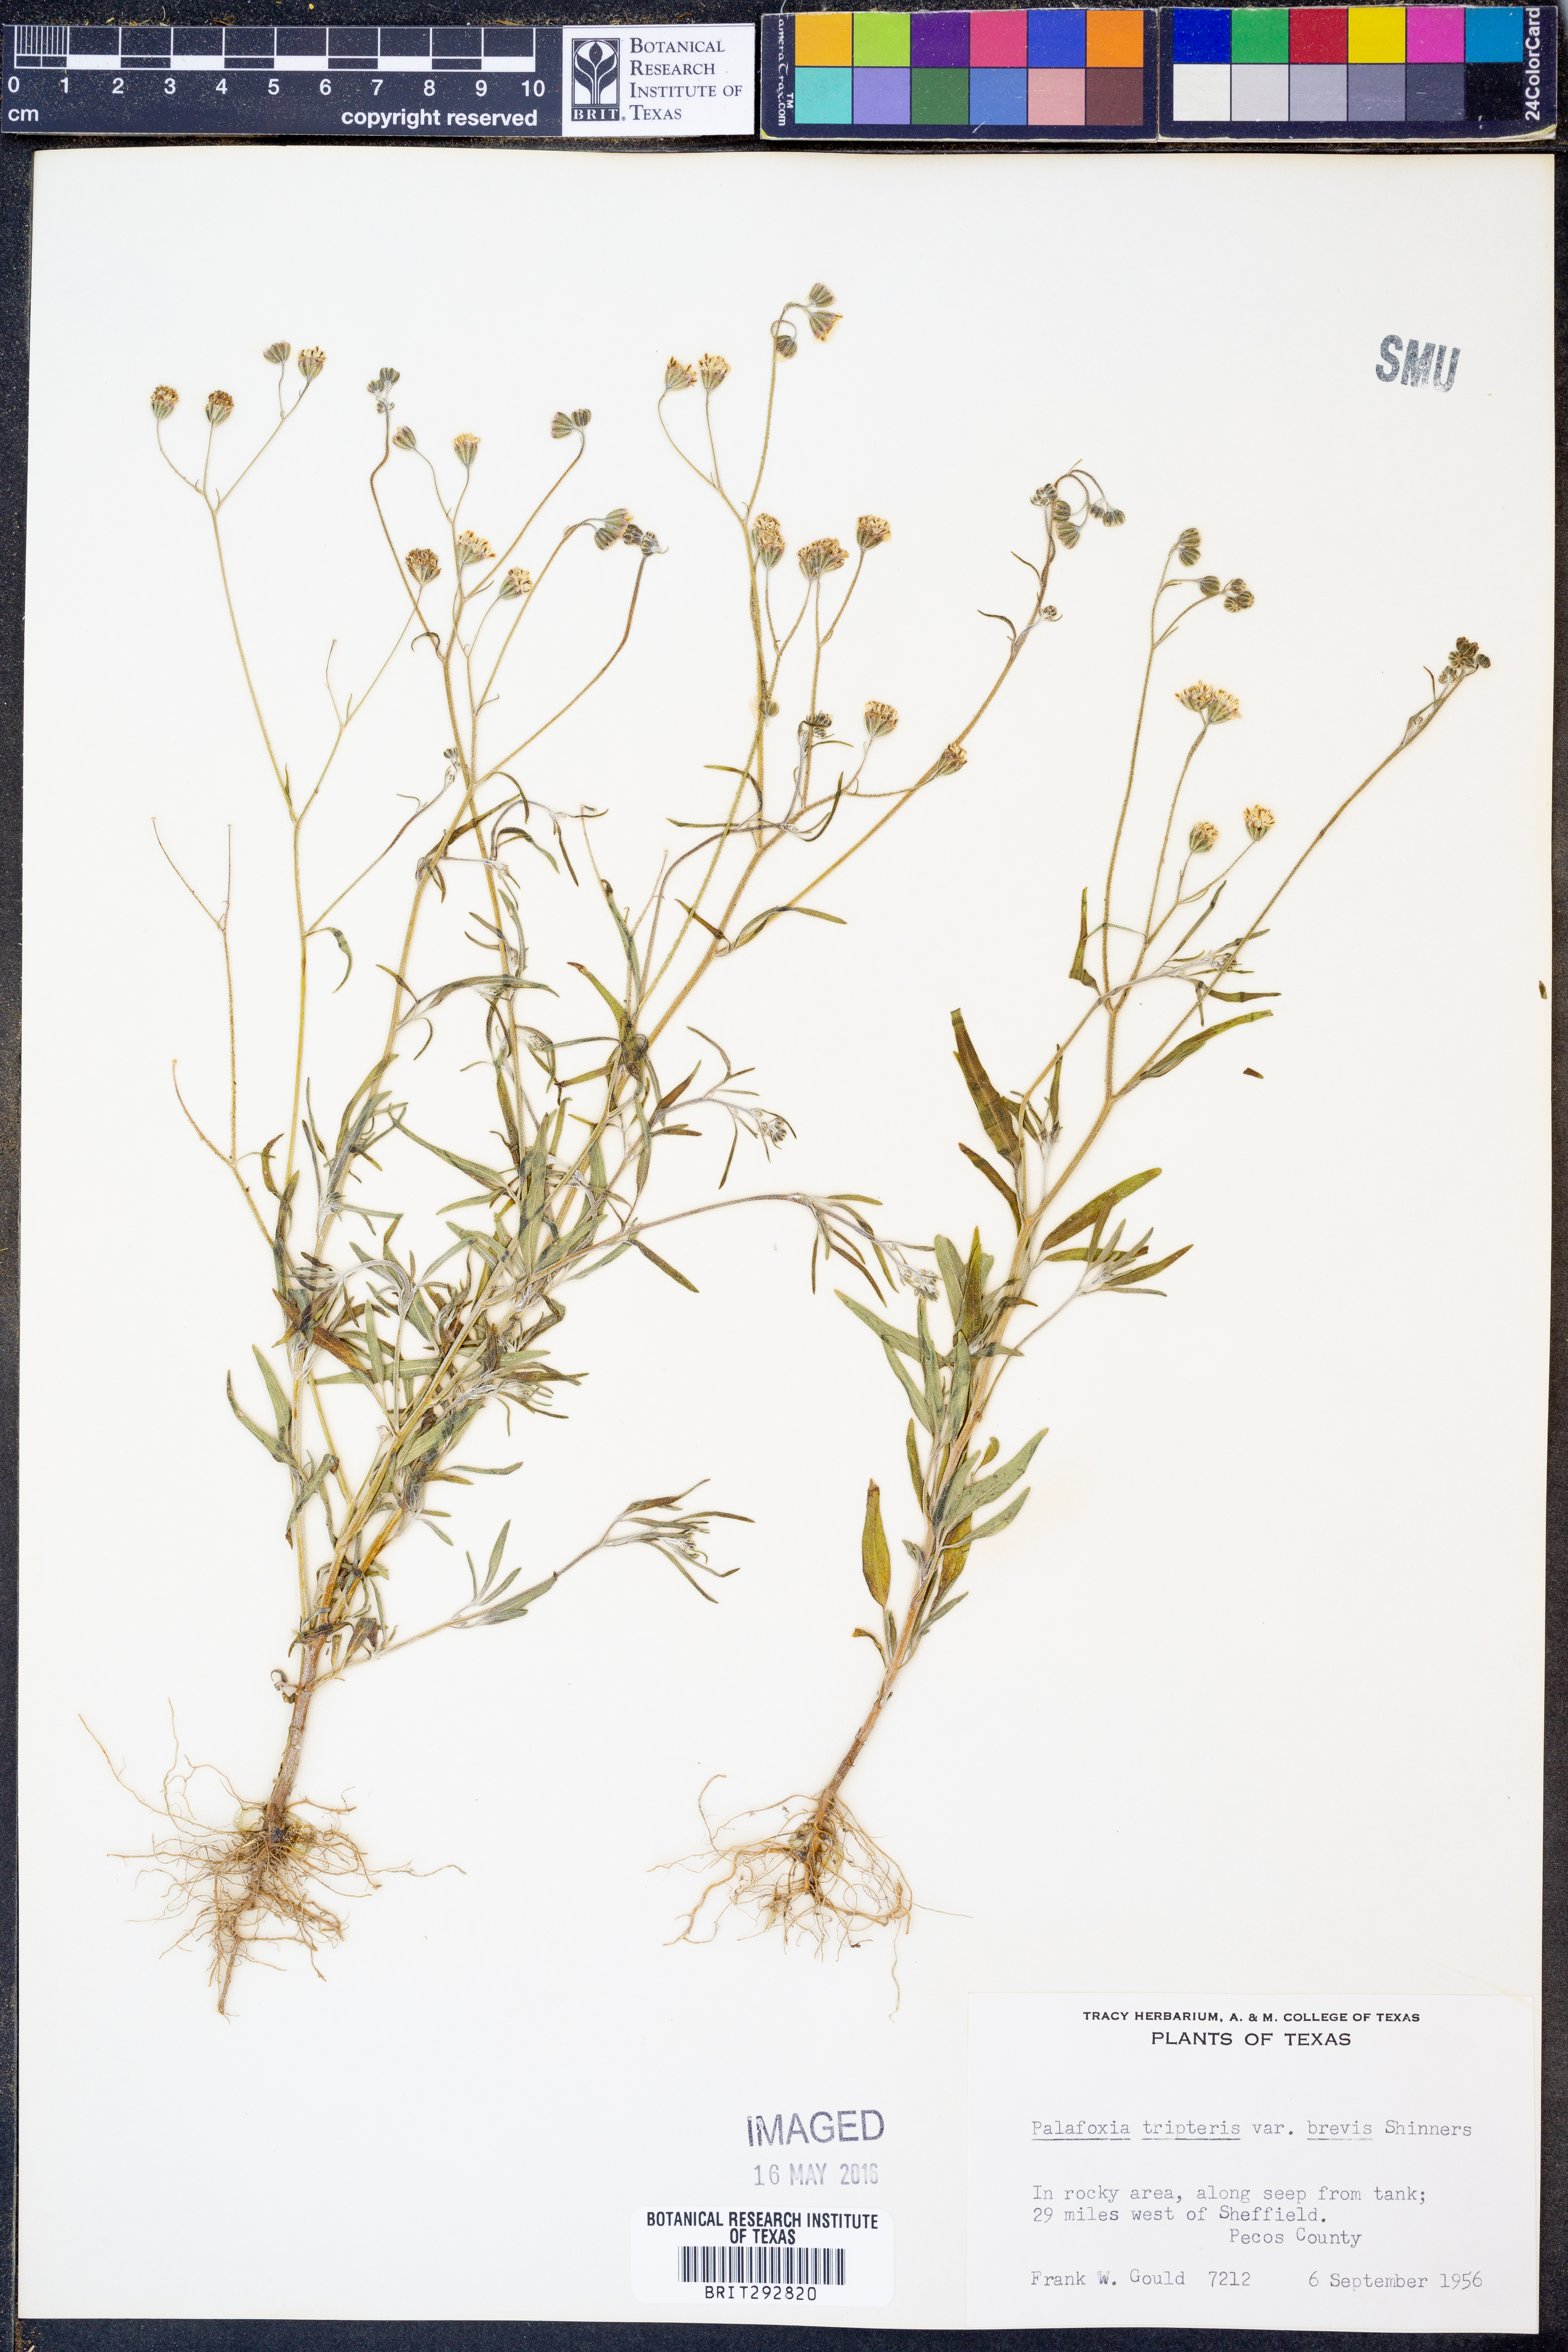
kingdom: Plantae
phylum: Tracheophyta
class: Magnoliopsida
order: Asterales
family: Asteraceae
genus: Florestina
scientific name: Florestina tripteris
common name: Sticky florestina
